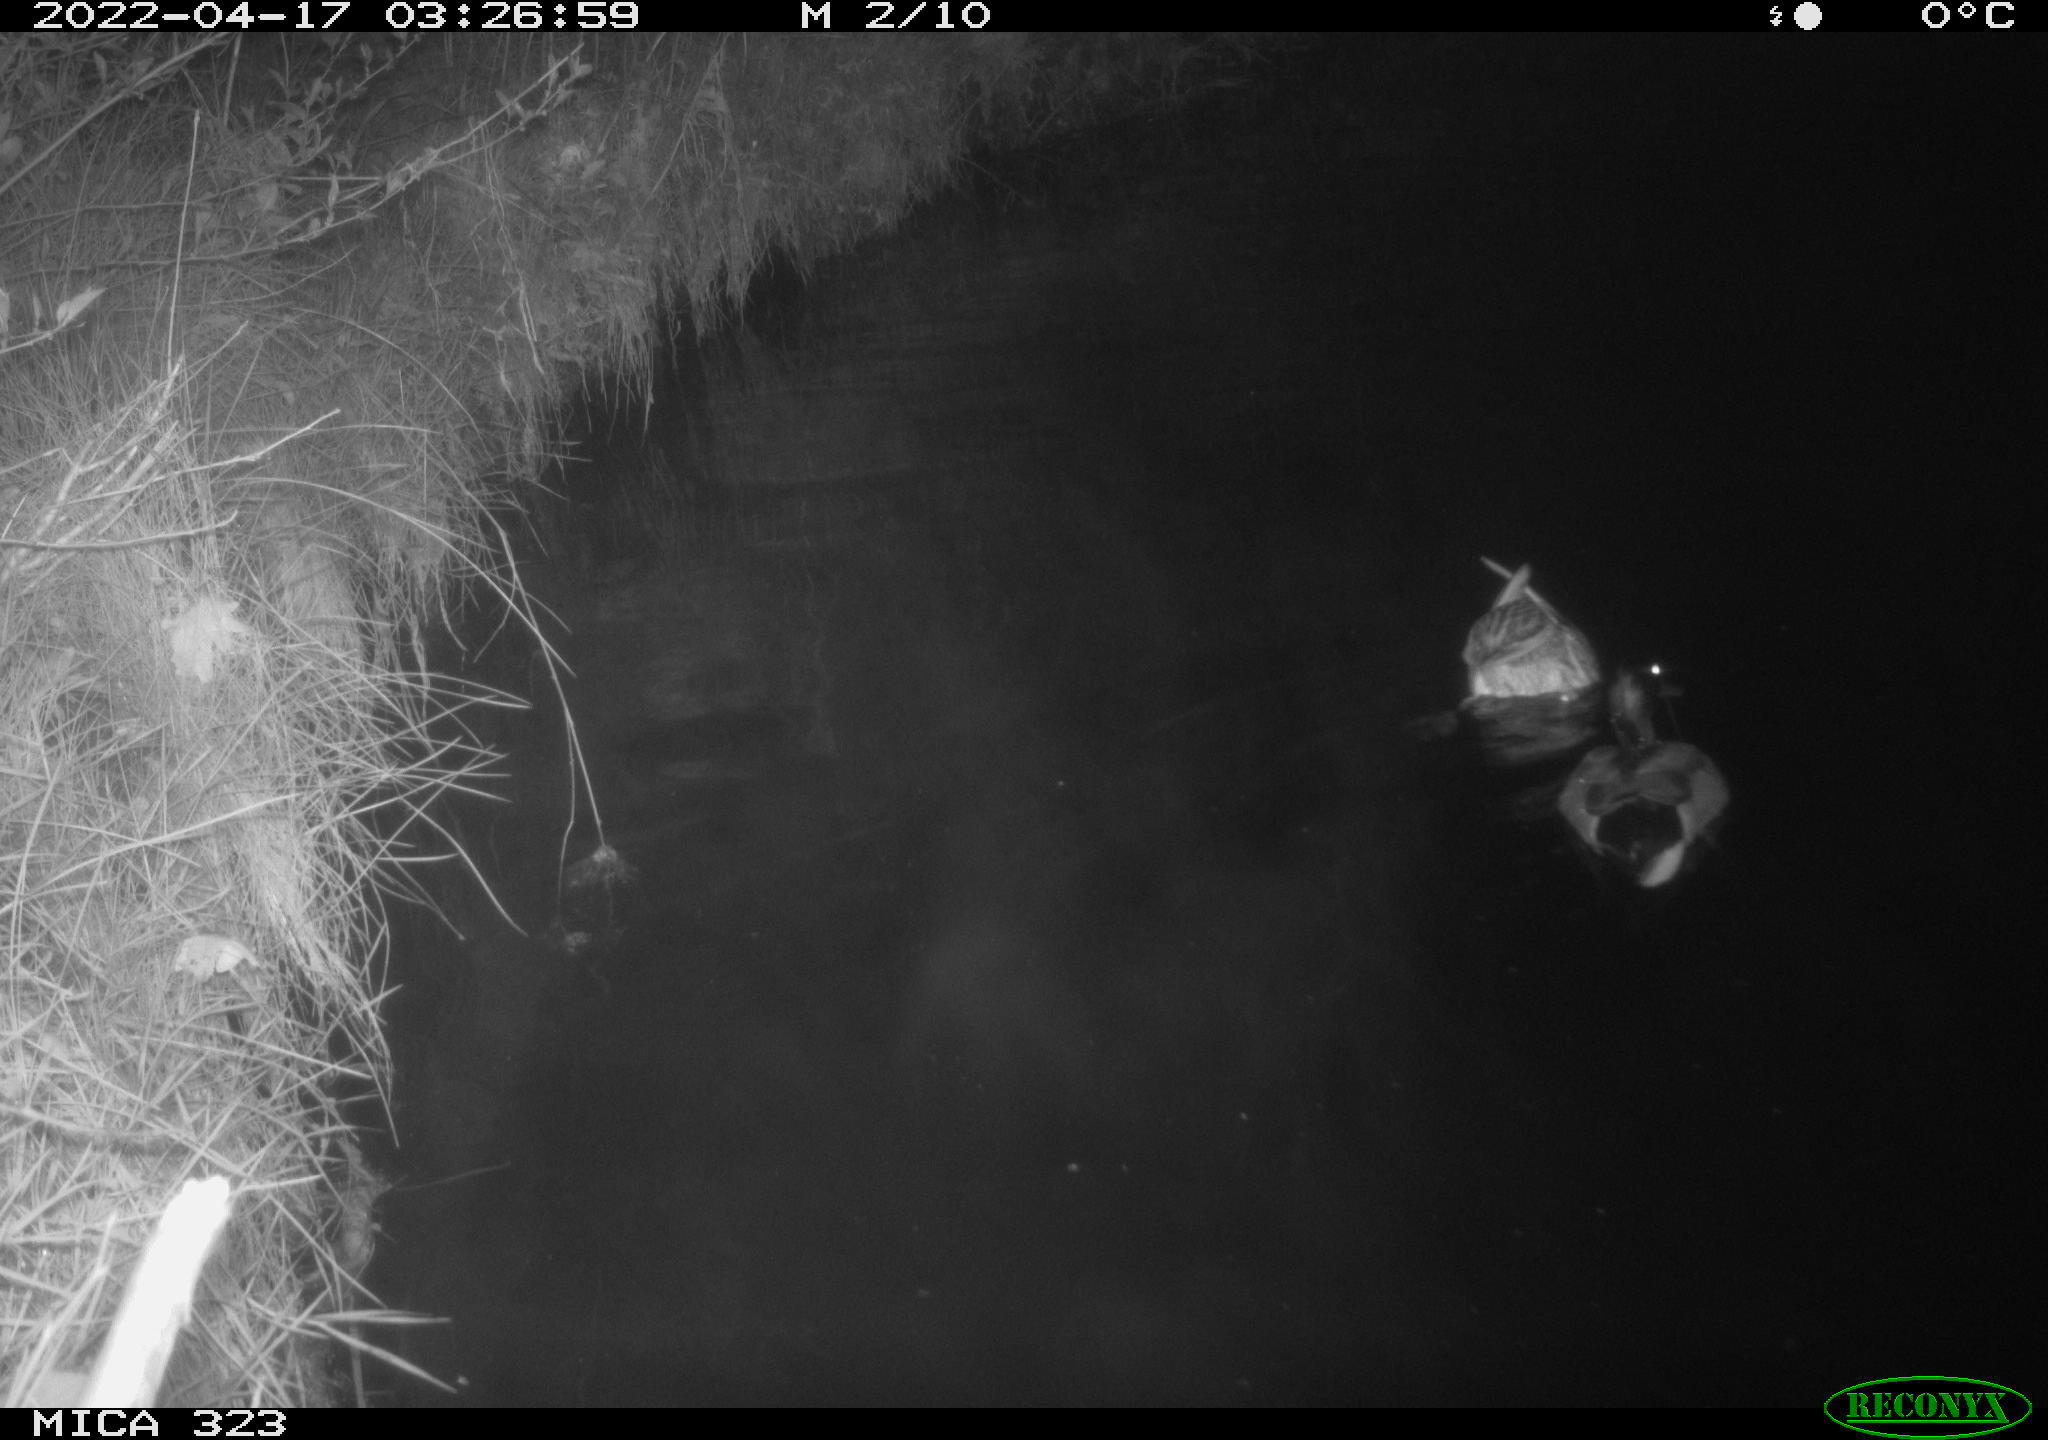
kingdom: Animalia
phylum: Chordata
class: Aves
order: Anseriformes
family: Anatidae
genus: Anas
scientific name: Anas platyrhynchos
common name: Mallard
